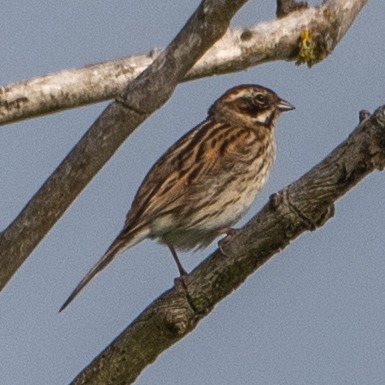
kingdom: Animalia
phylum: Chordata
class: Aves
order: Passeriformes
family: Emberizidae
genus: Emberiza
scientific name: Emberiza schoeniclus
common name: Rørspurv
